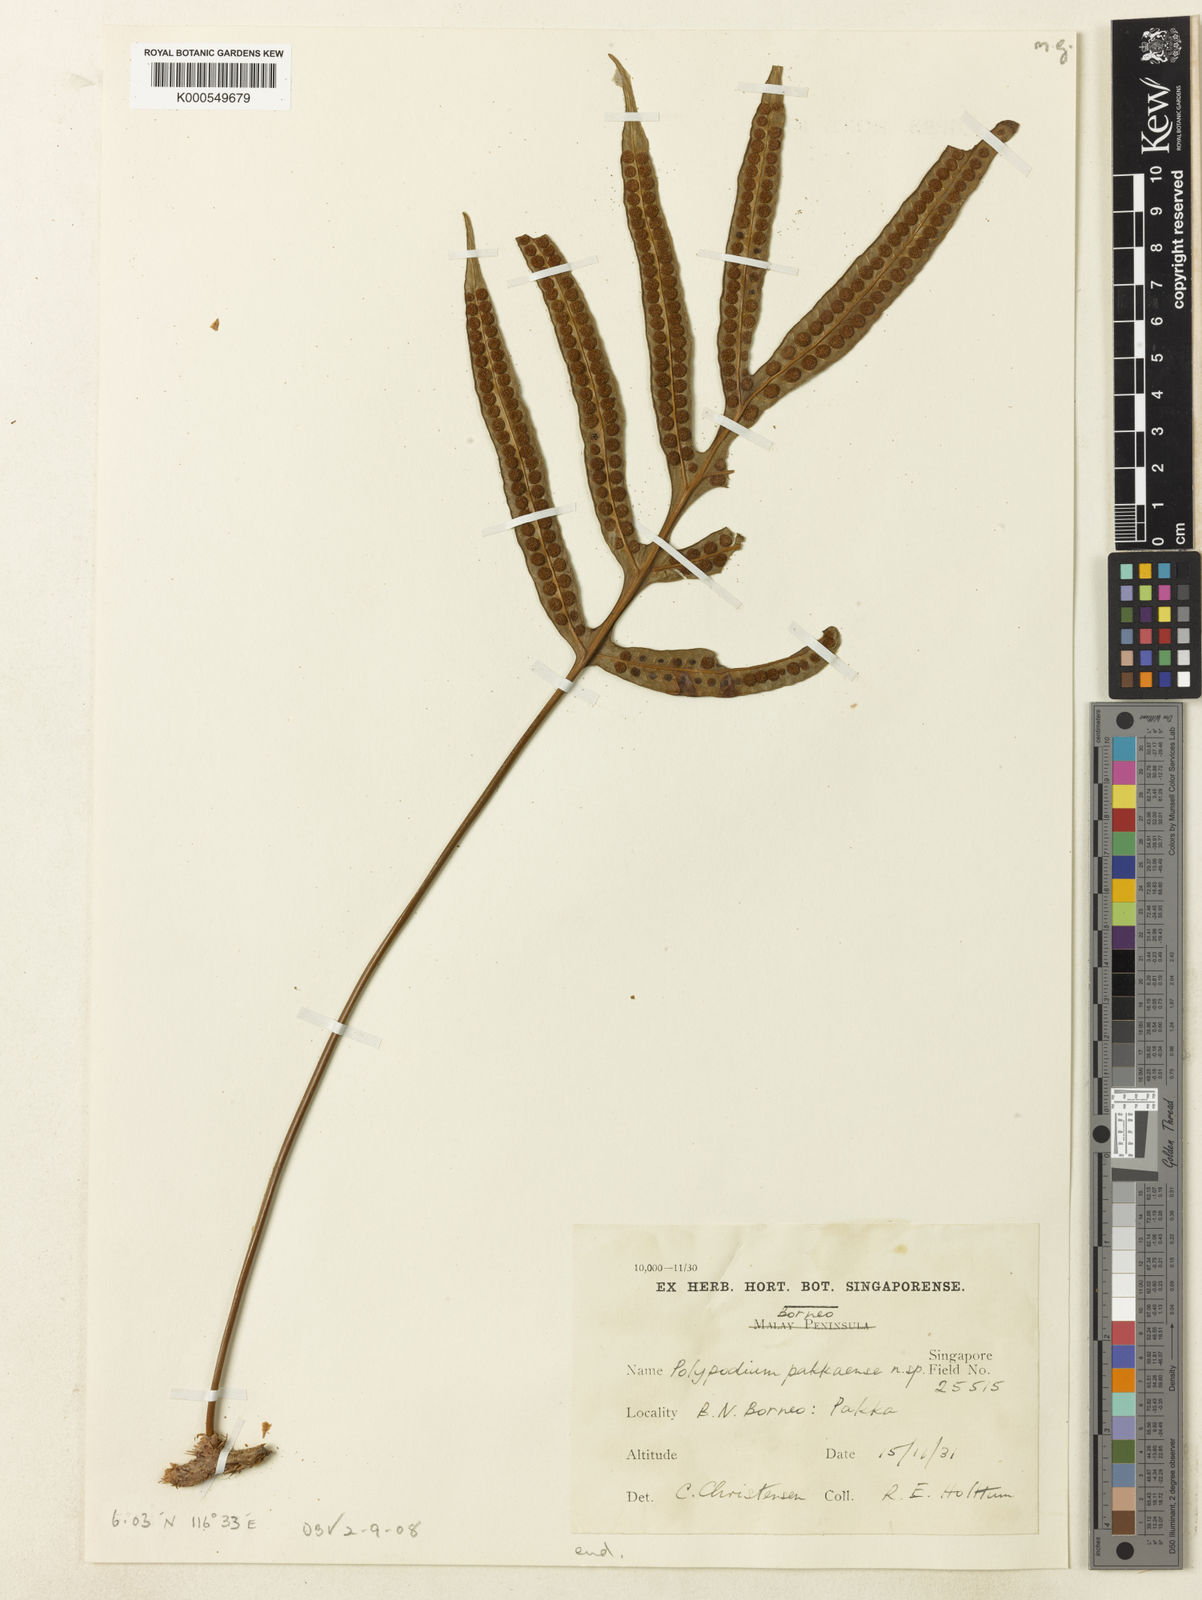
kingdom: Plantae
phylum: Tracheophyta
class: Polypodiopsida
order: Polypodiales
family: Polypodiaceae
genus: Selliguea
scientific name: Selliguea taeniata
